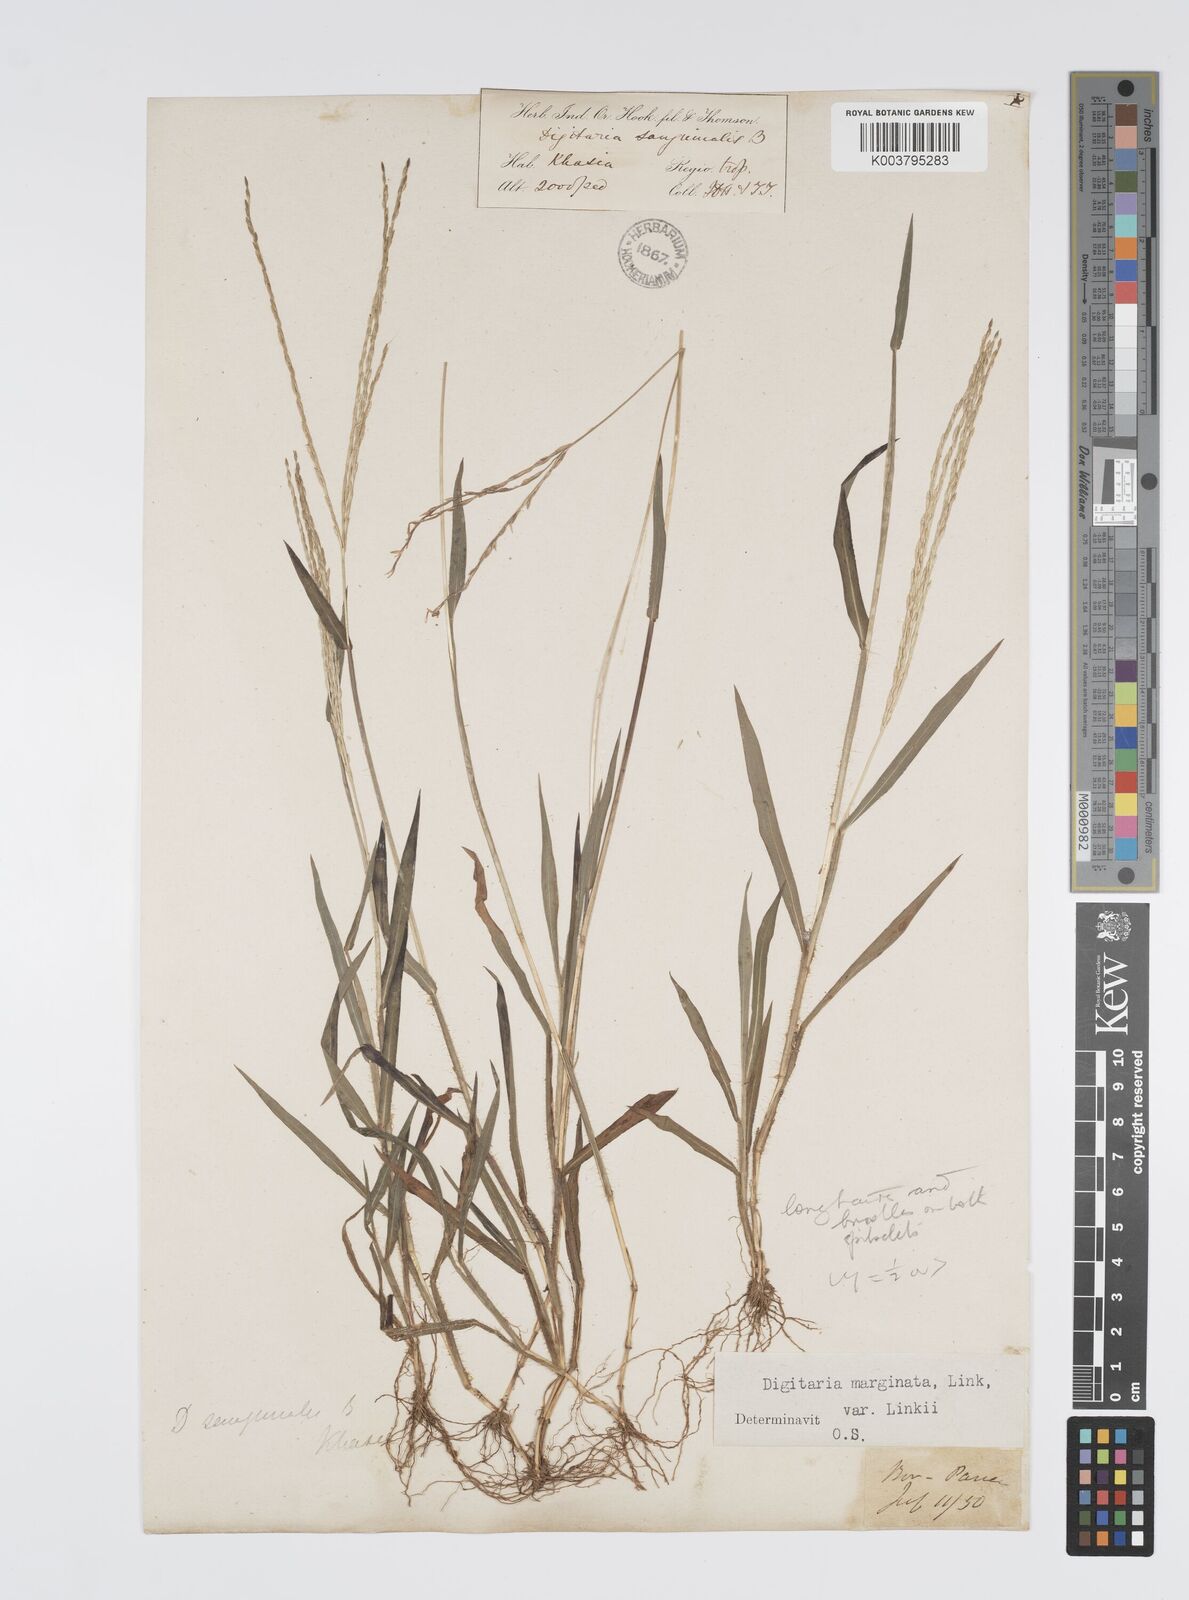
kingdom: Plantae
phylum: Tracheophyta
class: Liliopsida
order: Poales
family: Poaceae
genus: Digitaria
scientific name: Digitaria ciliaris
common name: Tropical finger-grass
